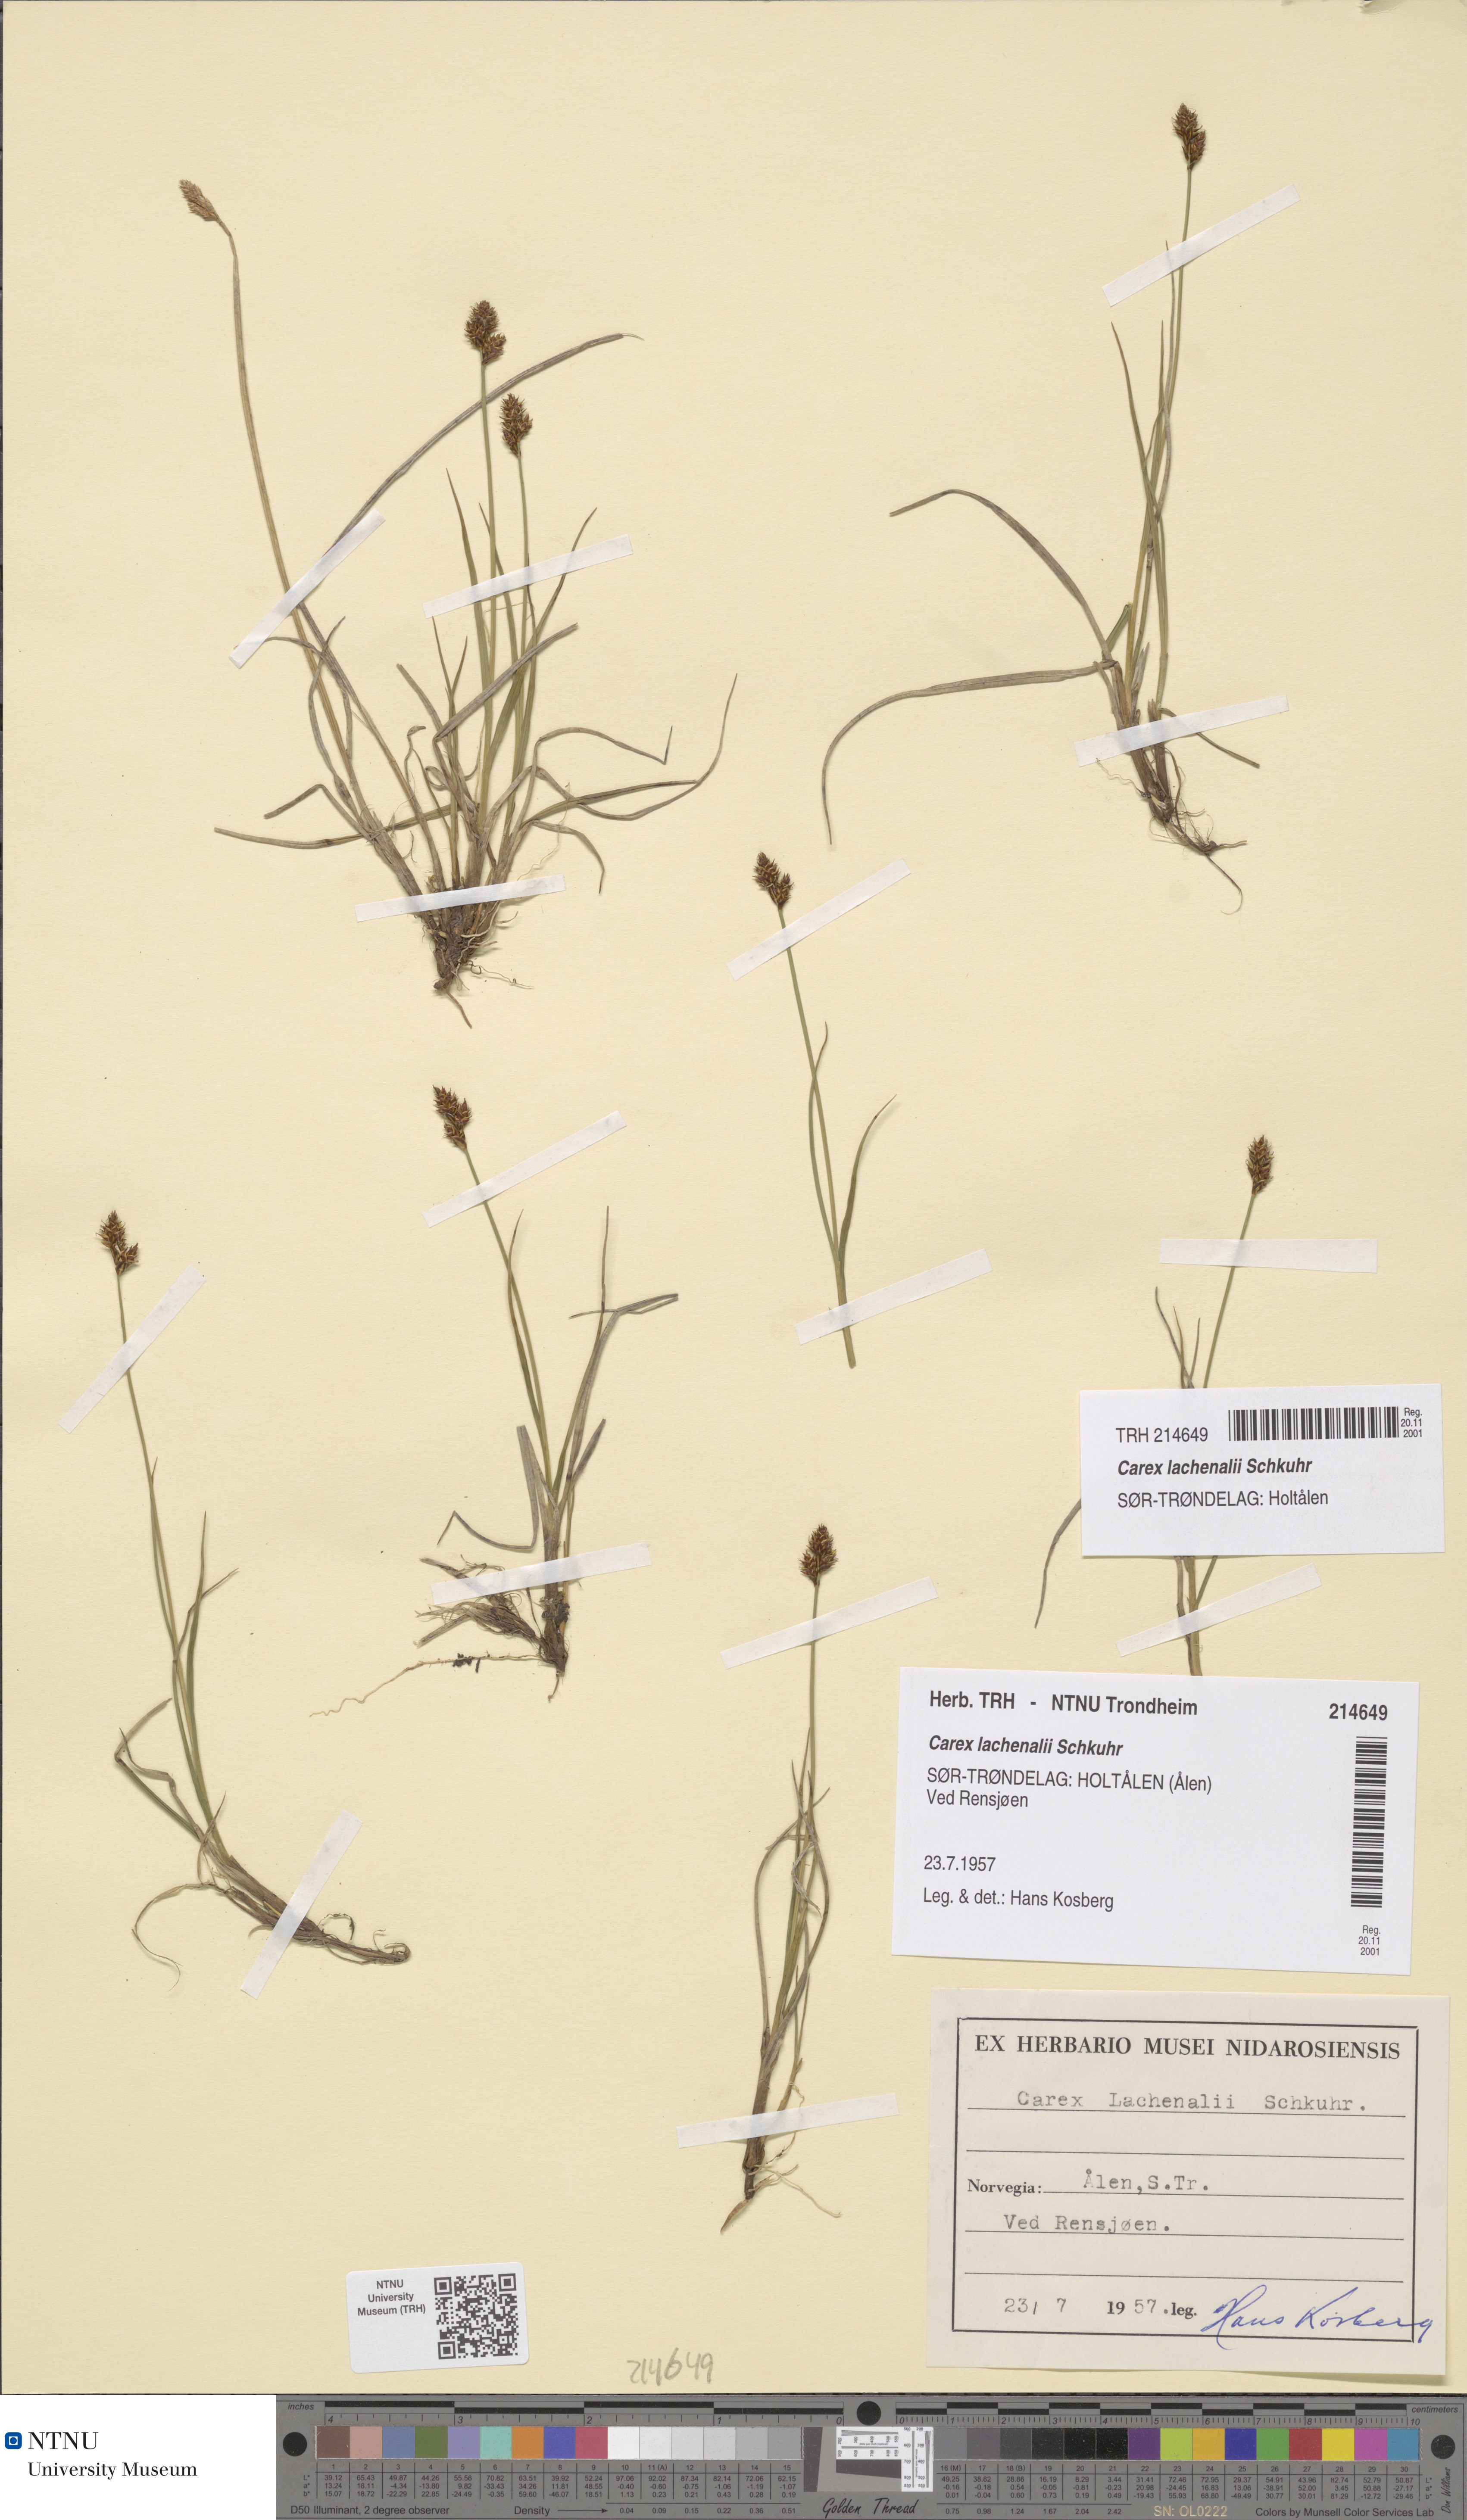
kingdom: Plantae
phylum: Tracheophyta
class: Liliopsida
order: Poales
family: Cyperaceae
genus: Carex
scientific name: Carex lachenalii
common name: Hare's-foot sedge
